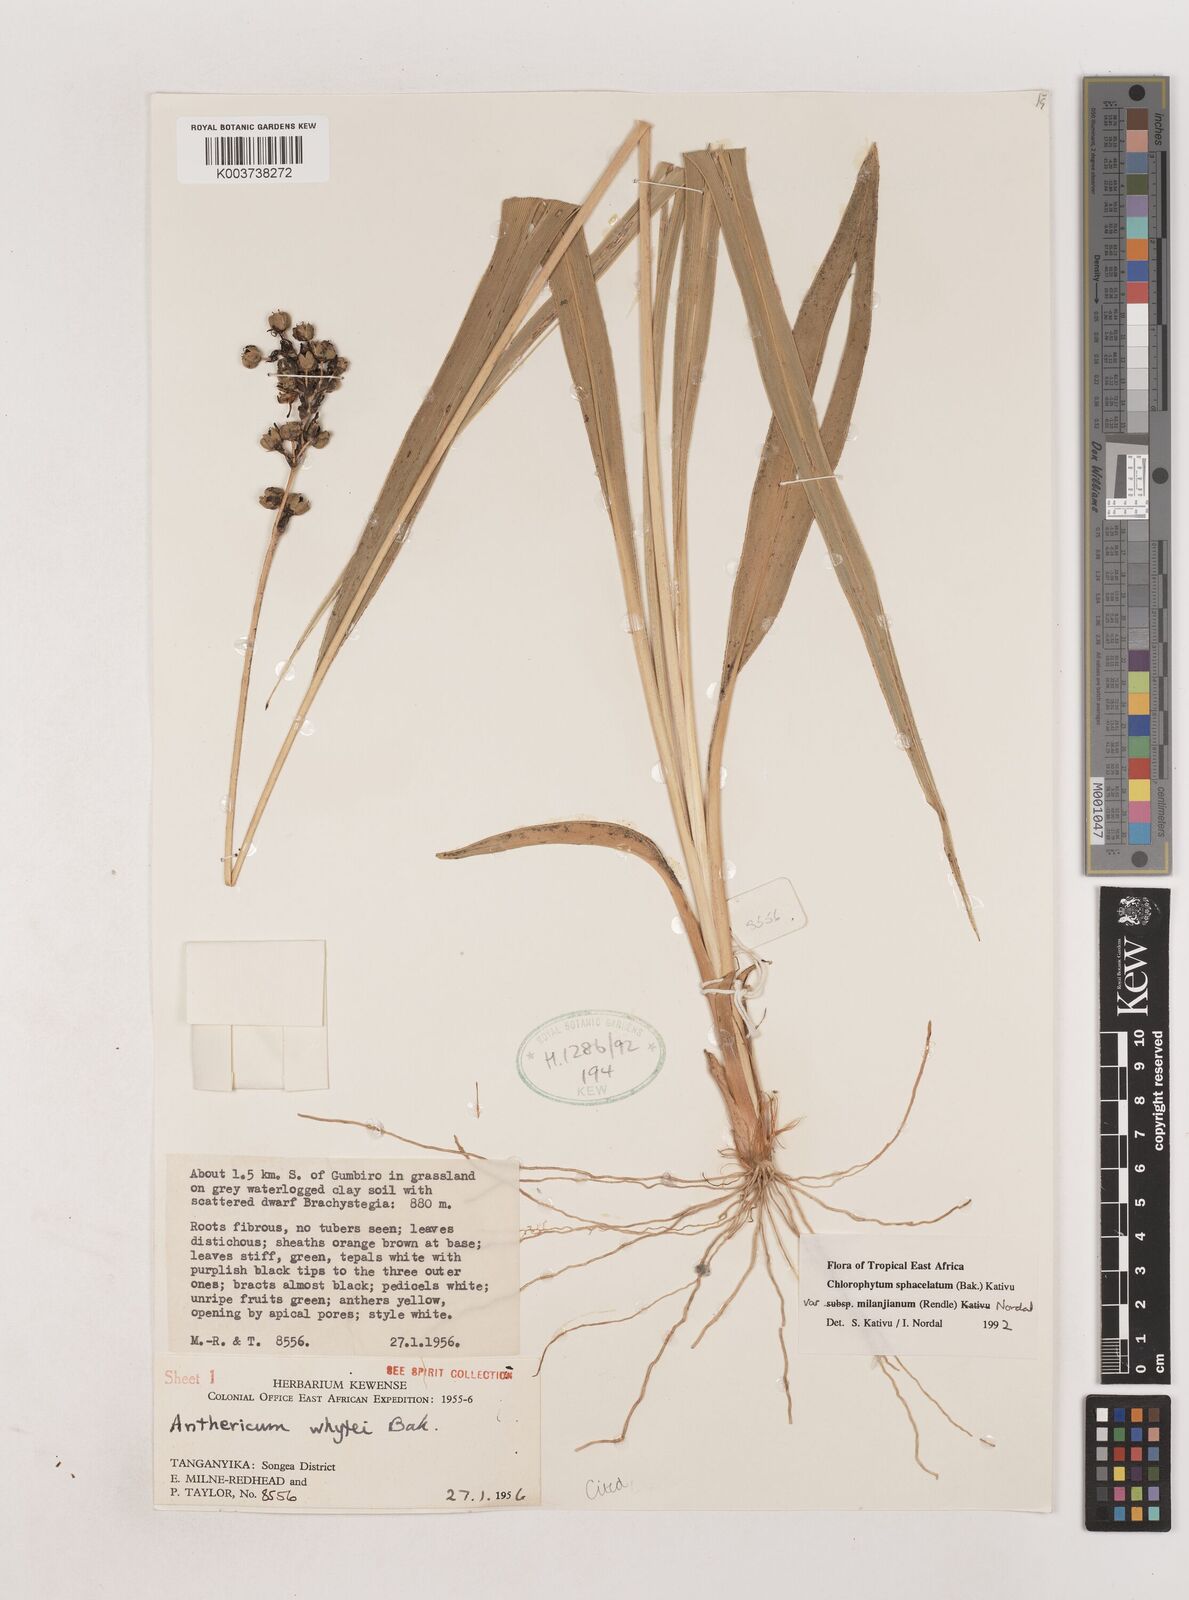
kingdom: Plantae
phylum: Tracheophyta
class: Liliopsida
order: Asparagales
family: Asparagaceae
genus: Chlorophytum
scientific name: Chlorophytum sphacelatum
